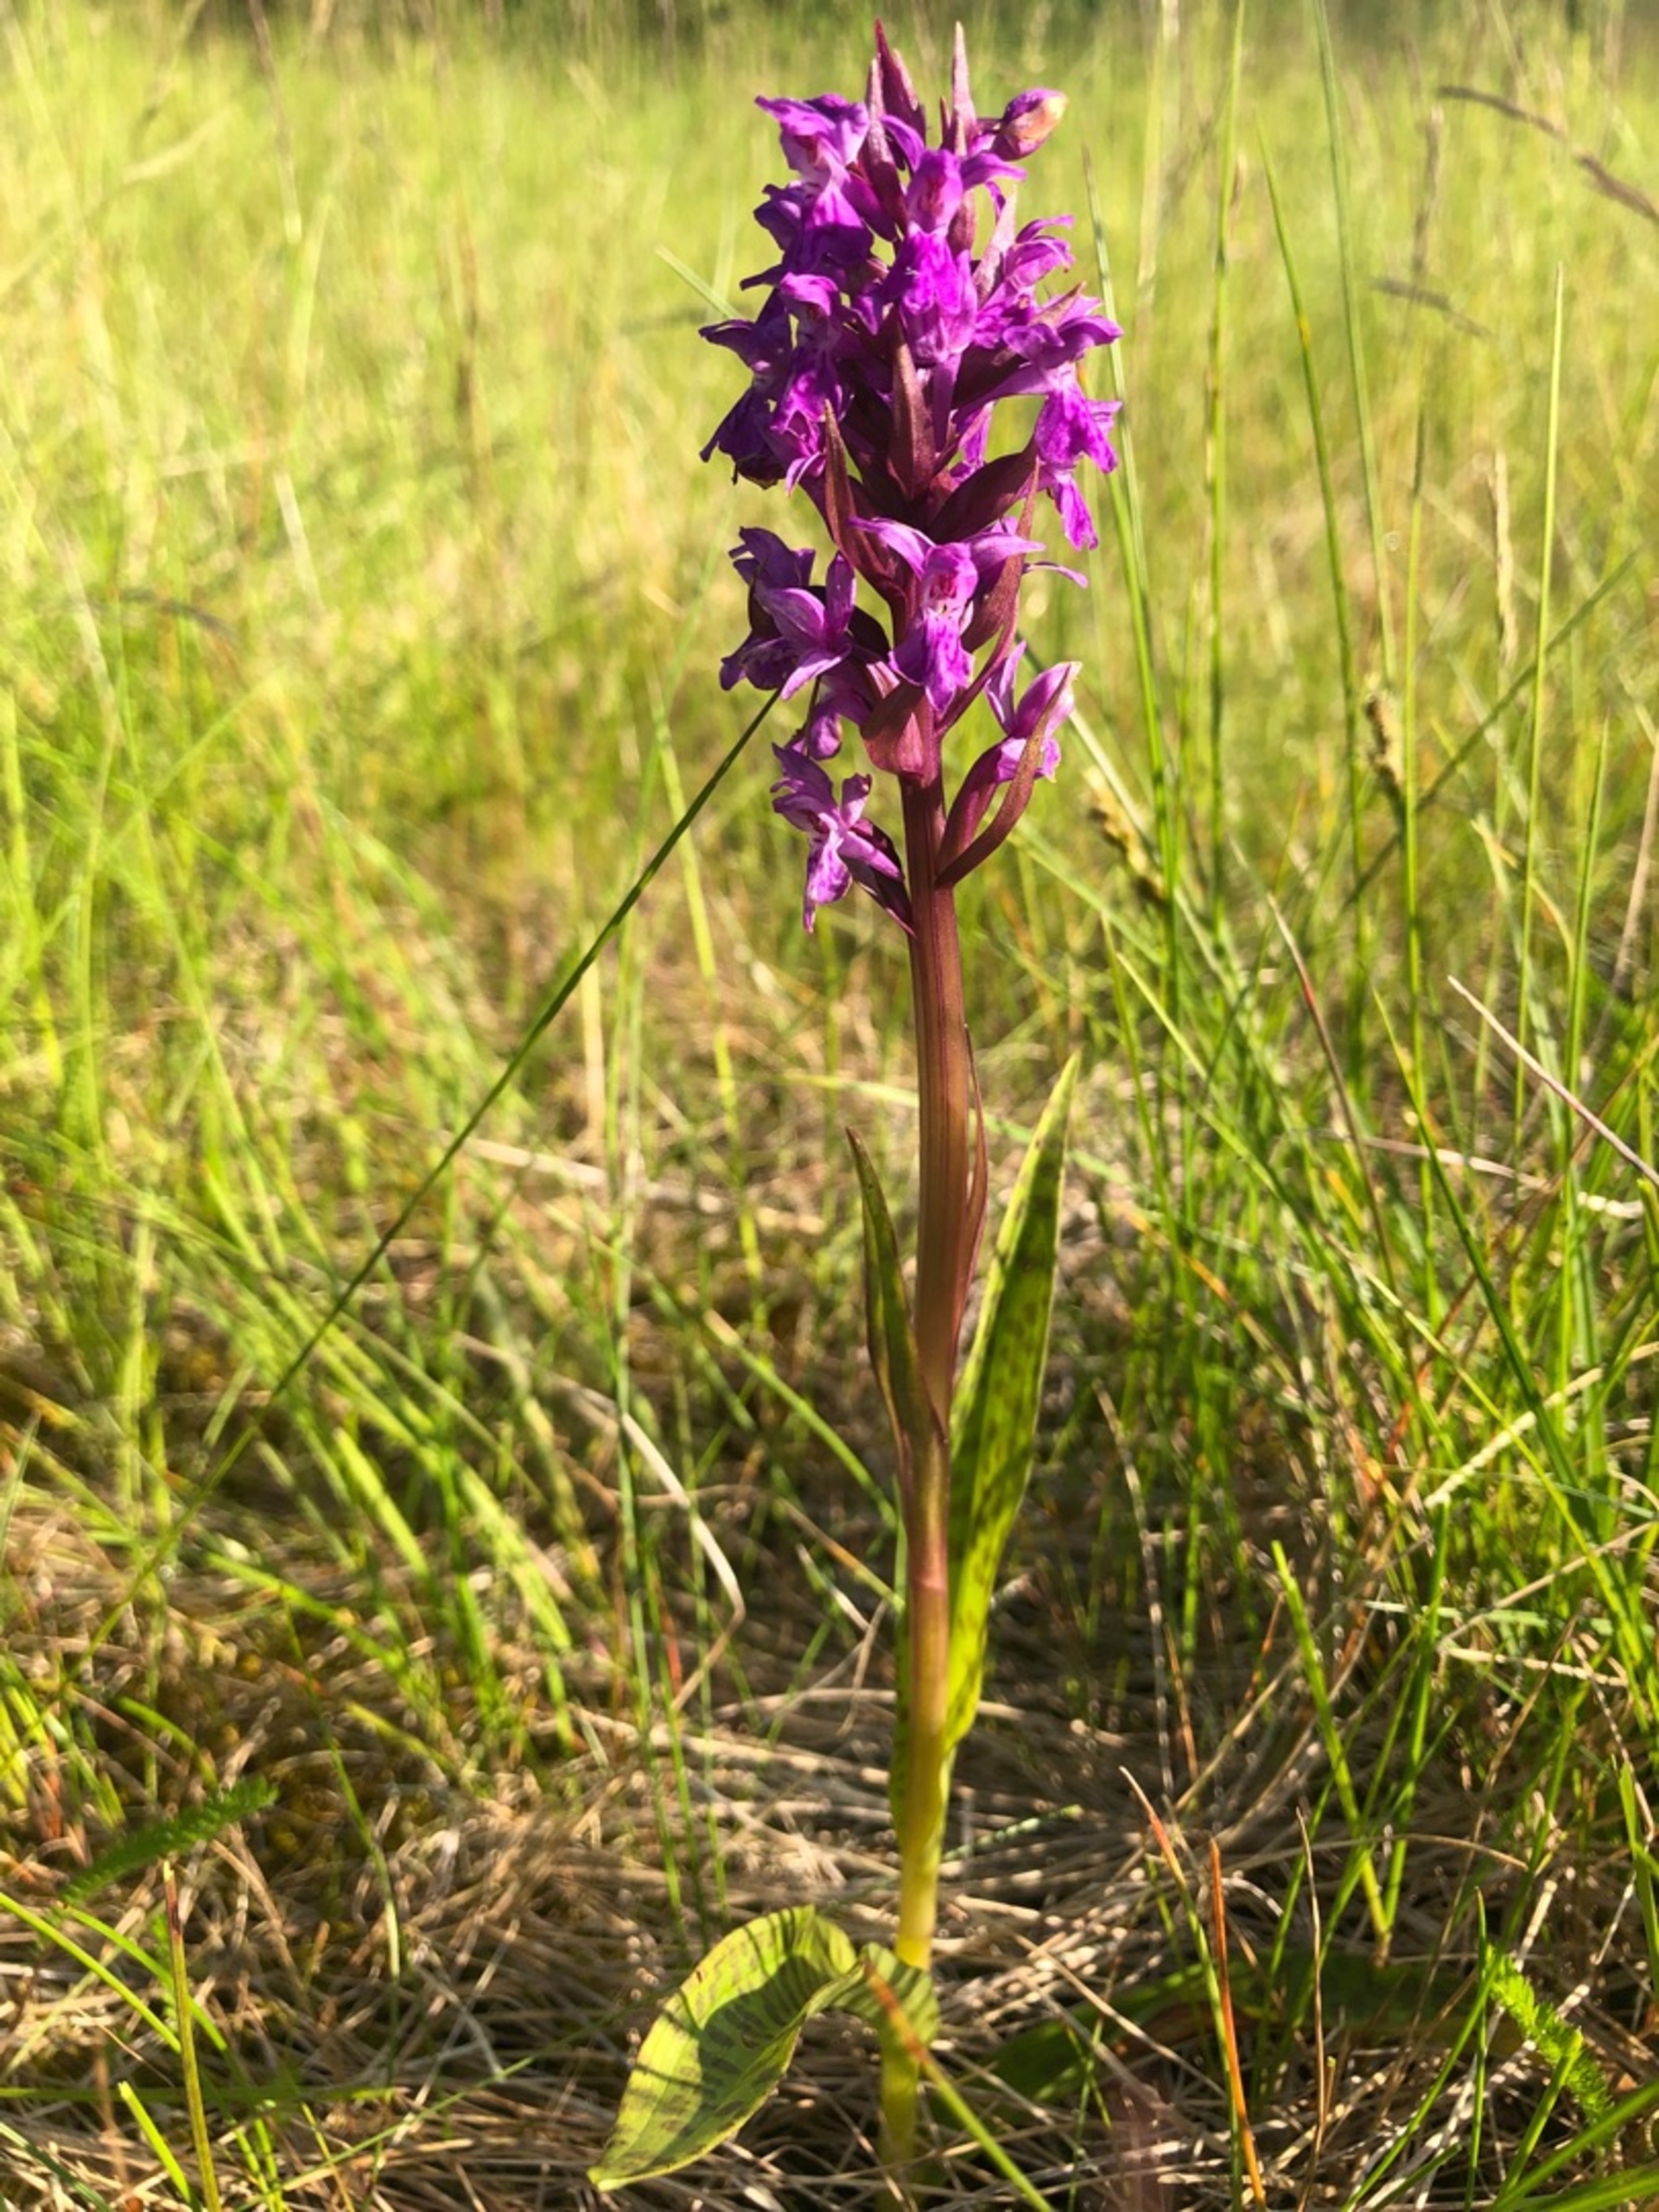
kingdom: Plantae
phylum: Tracheophyta
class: Liliopsida
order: Asparagales
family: Orchidaceae
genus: Dactylorhiza
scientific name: Dactylorhiza majalis
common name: Maj-gøgeurt
